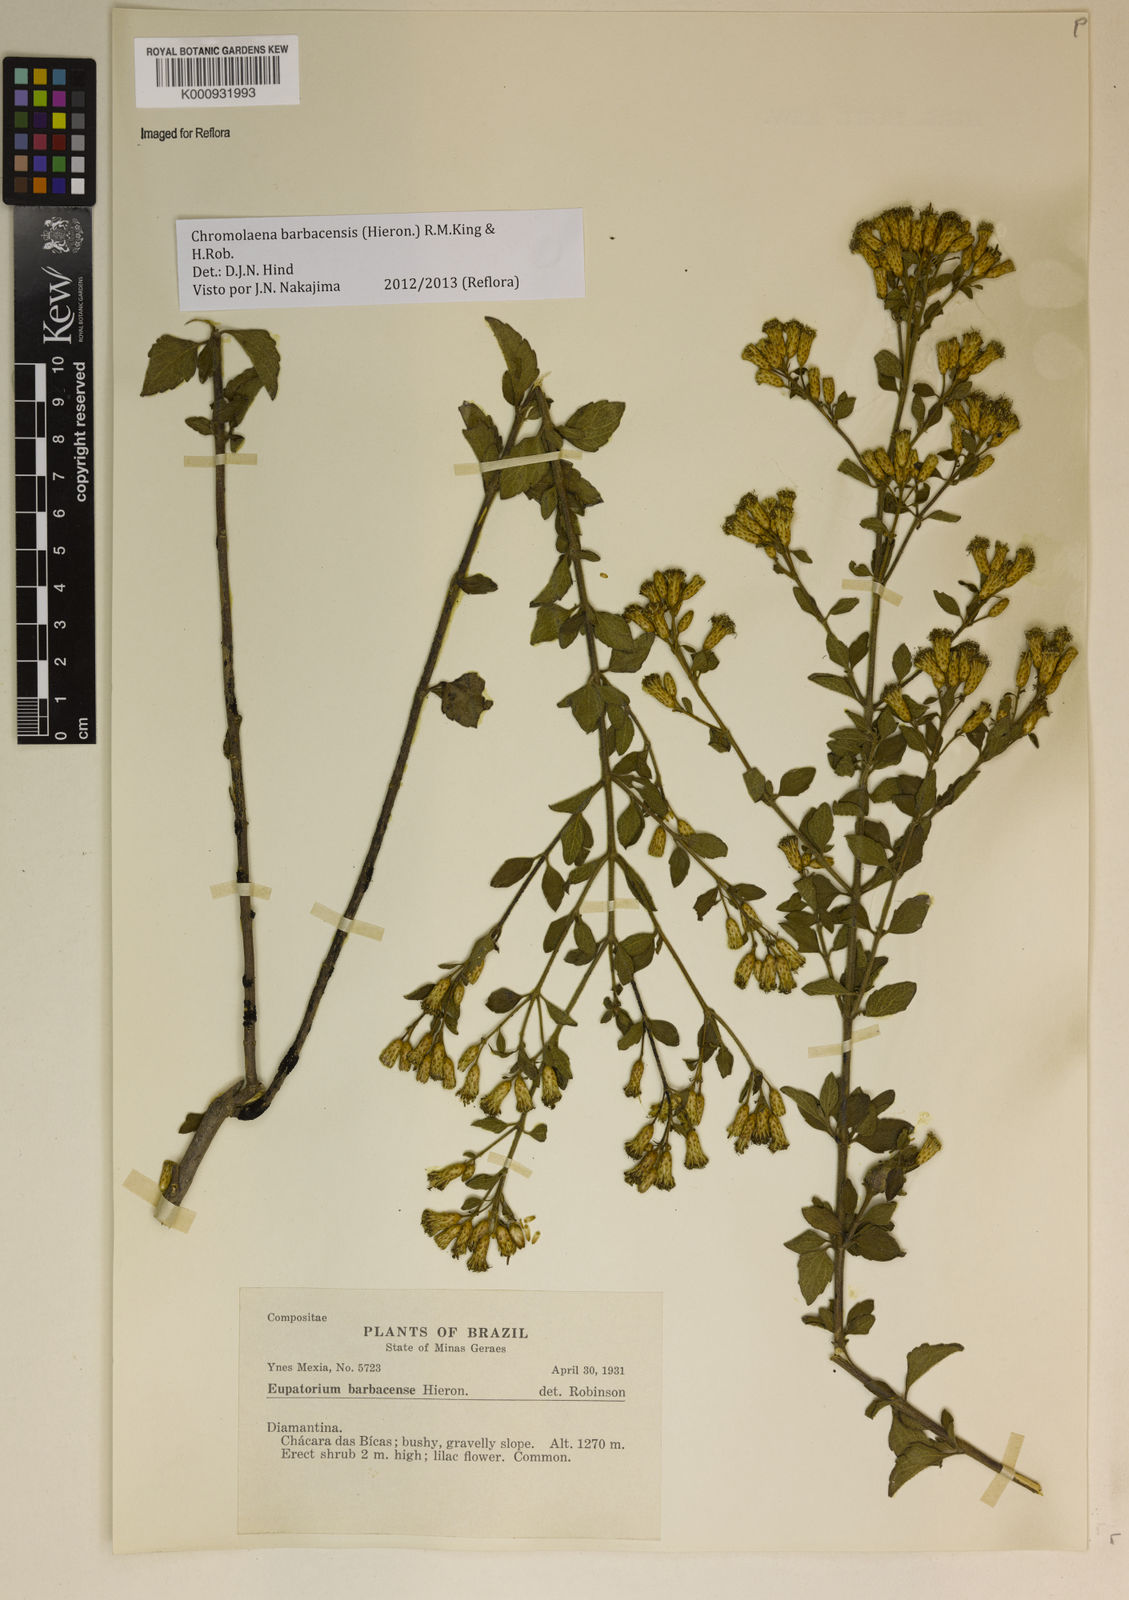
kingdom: Plantae
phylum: Tracheophyta
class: Magnoliopsida
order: Asterales
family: Asteraceae
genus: Chromolaena
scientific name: Chromolaena barbacensis
